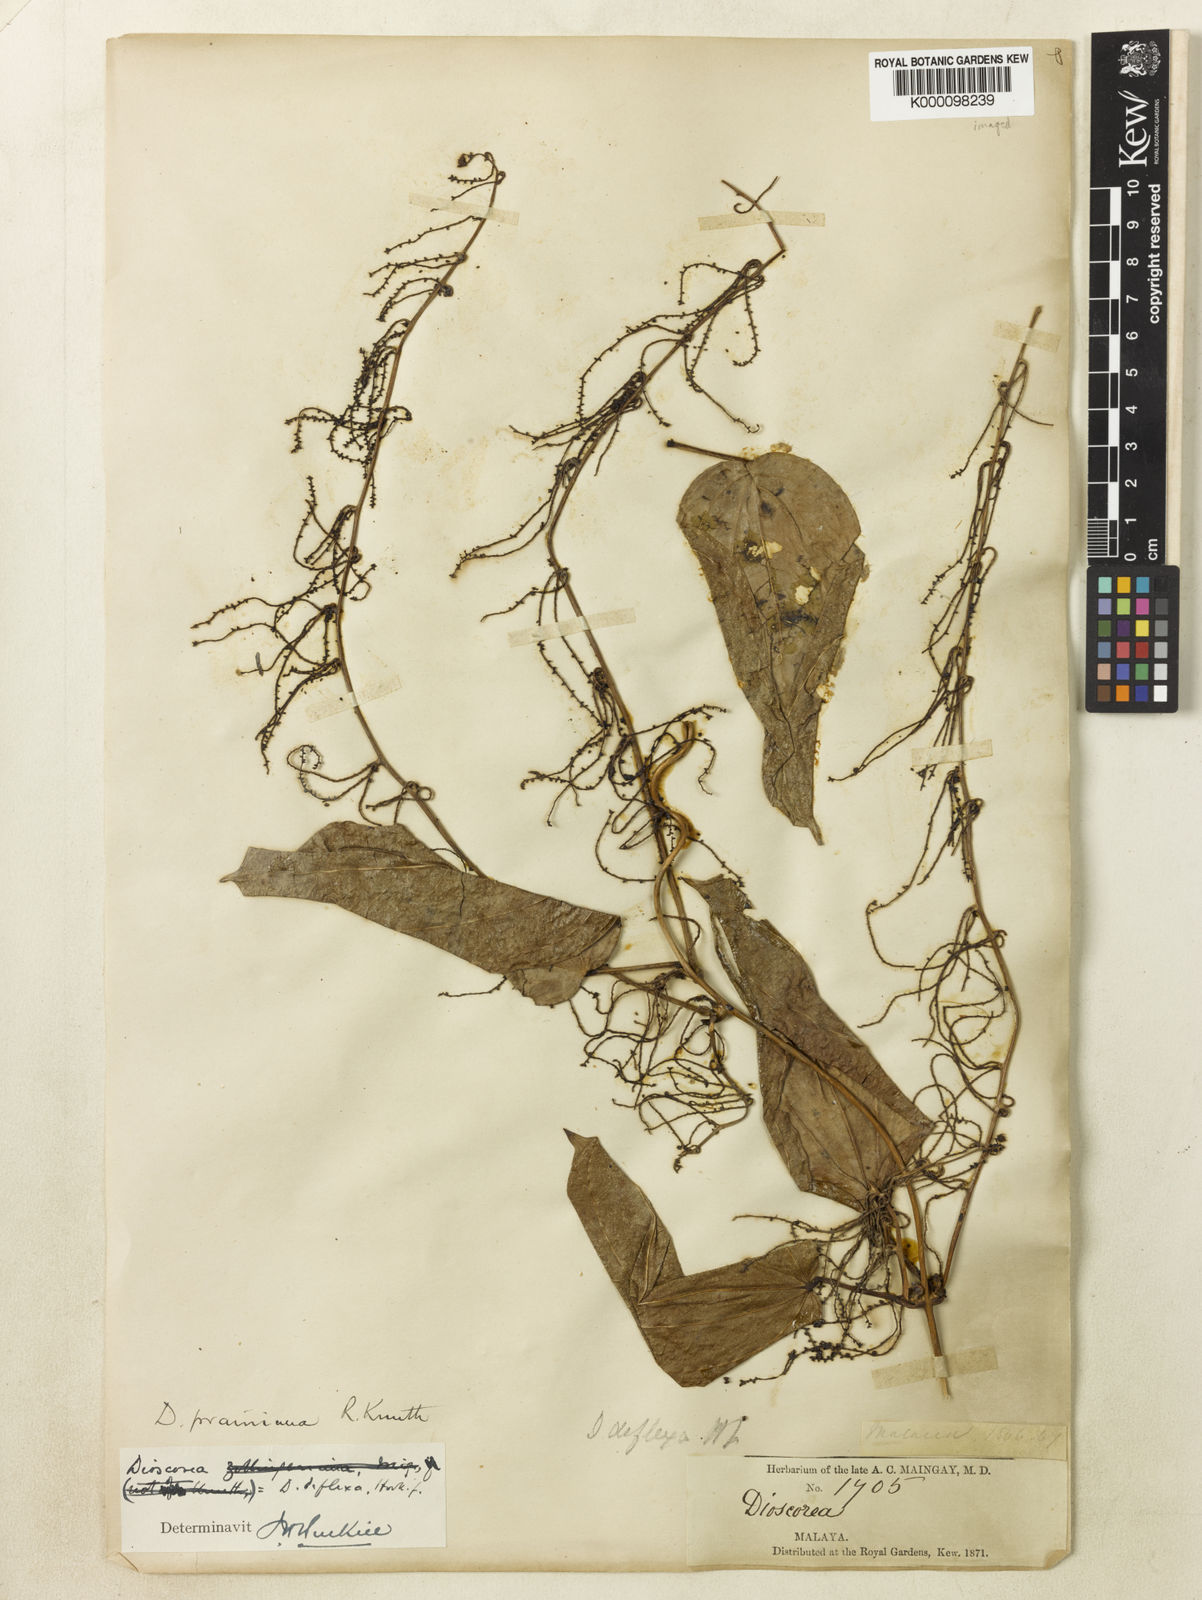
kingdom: Plantae
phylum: Tracheophyta
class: Liliopsida
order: Dioscoreales
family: Dioscoreaceae
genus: Dioscorea
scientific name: Dioscorea prainiana
